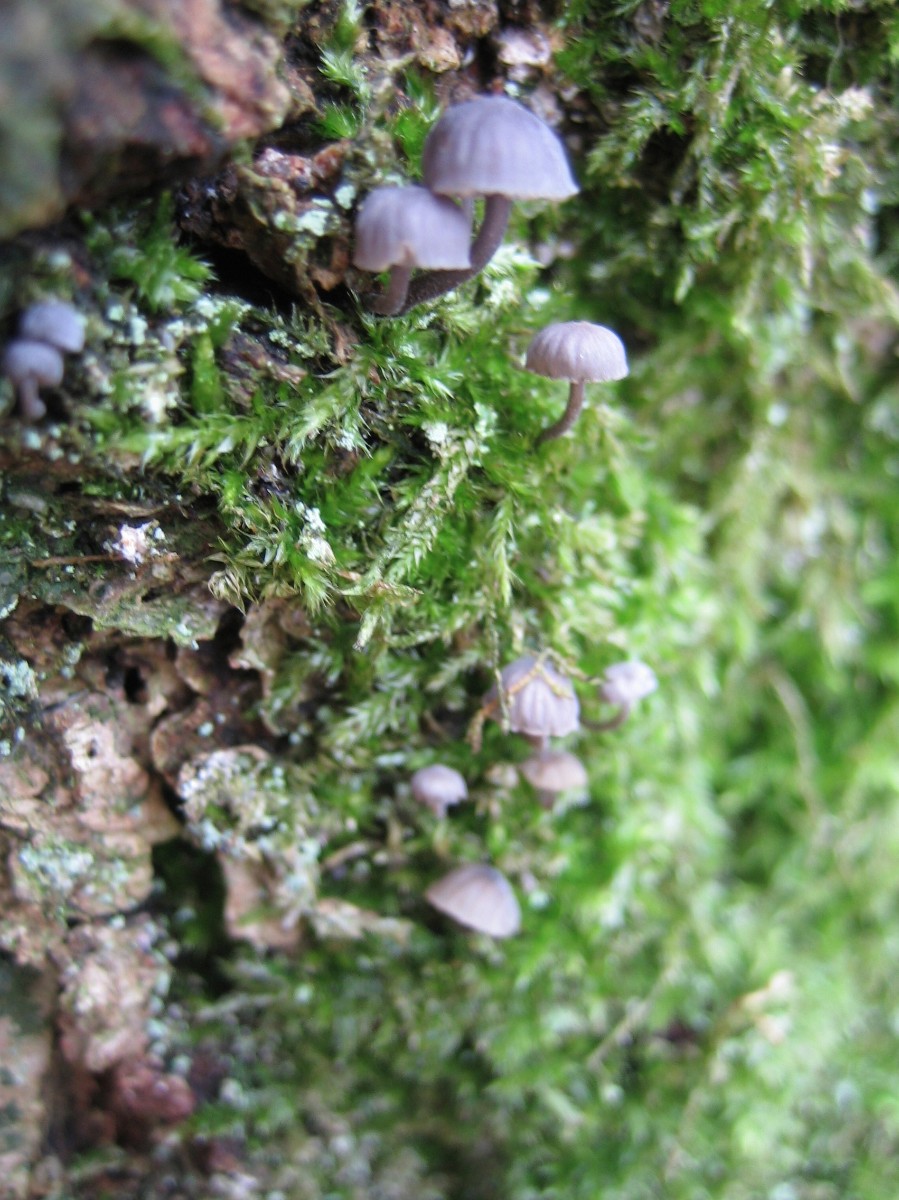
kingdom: Fungi
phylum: Basidiomycota
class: Agaricomycetes
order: Agaricales
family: Mycenaceae
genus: Mycena
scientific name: Mycena pseudocorticola
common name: gråblå bark-huesvamp
